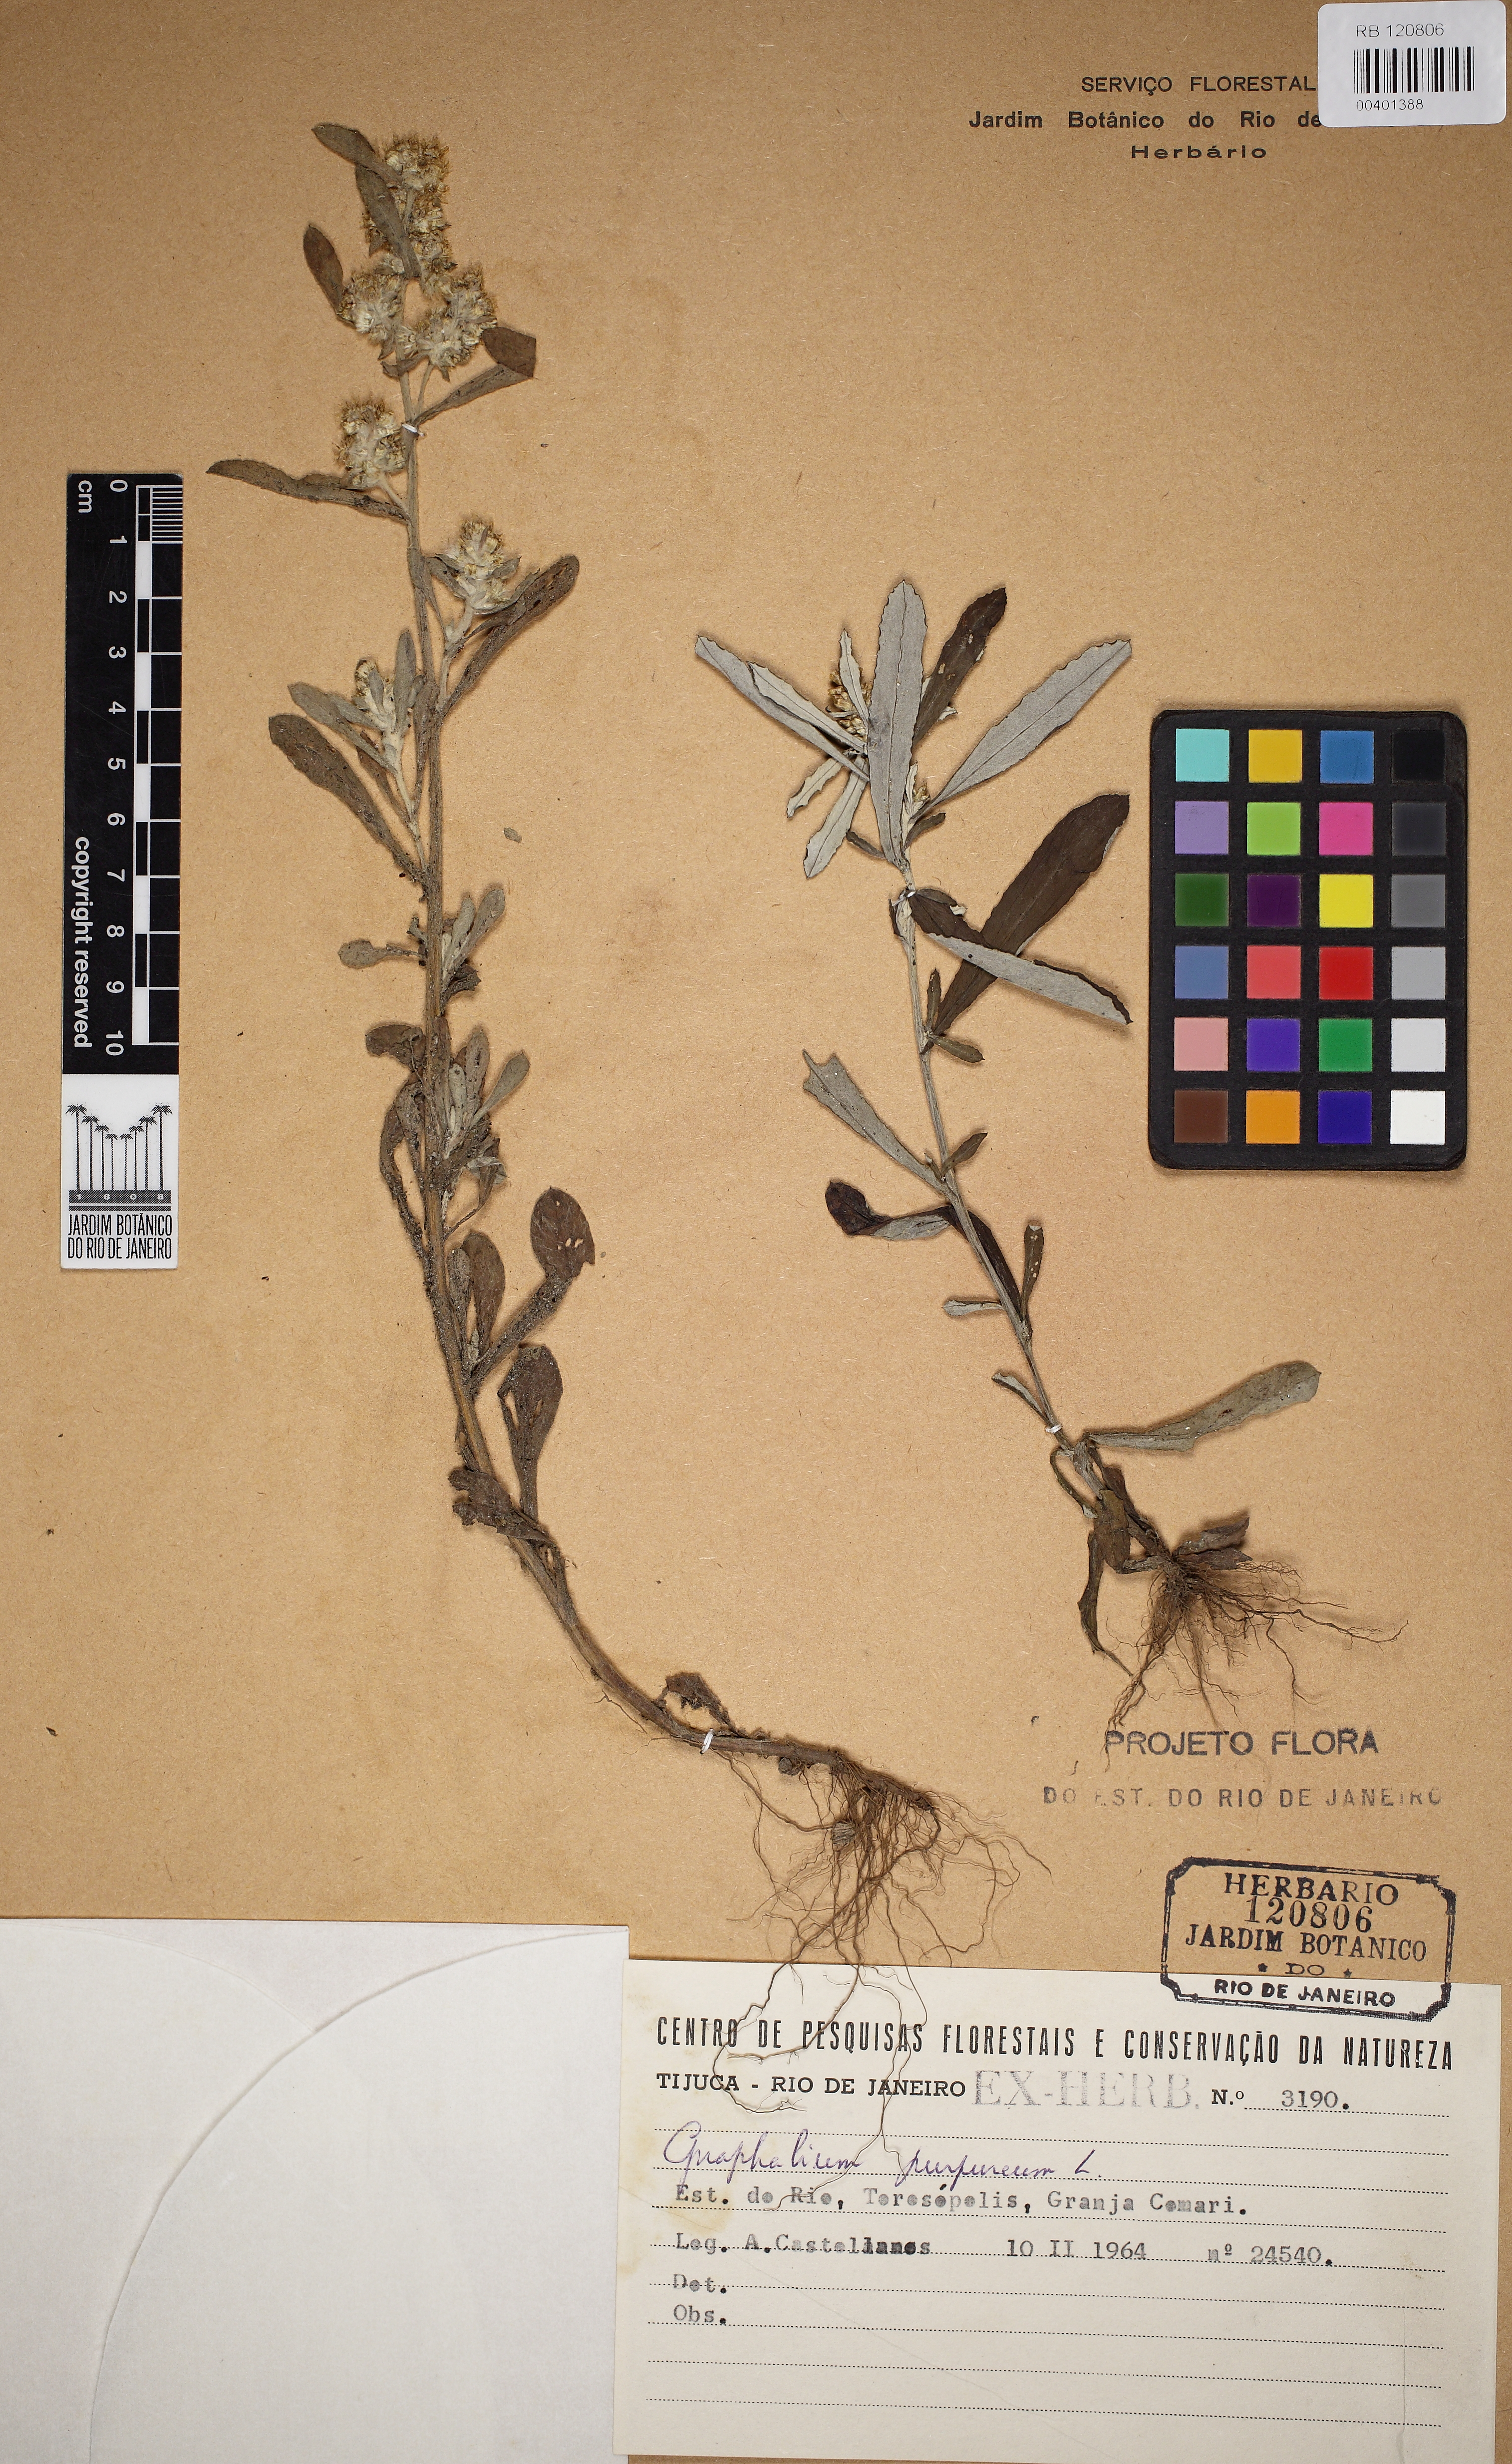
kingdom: Plantae
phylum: Tracheophyta
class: Magnoliopsida
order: Asterales
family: Asteraceae
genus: Pseudognaphalium
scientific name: Pseudognaphalium
